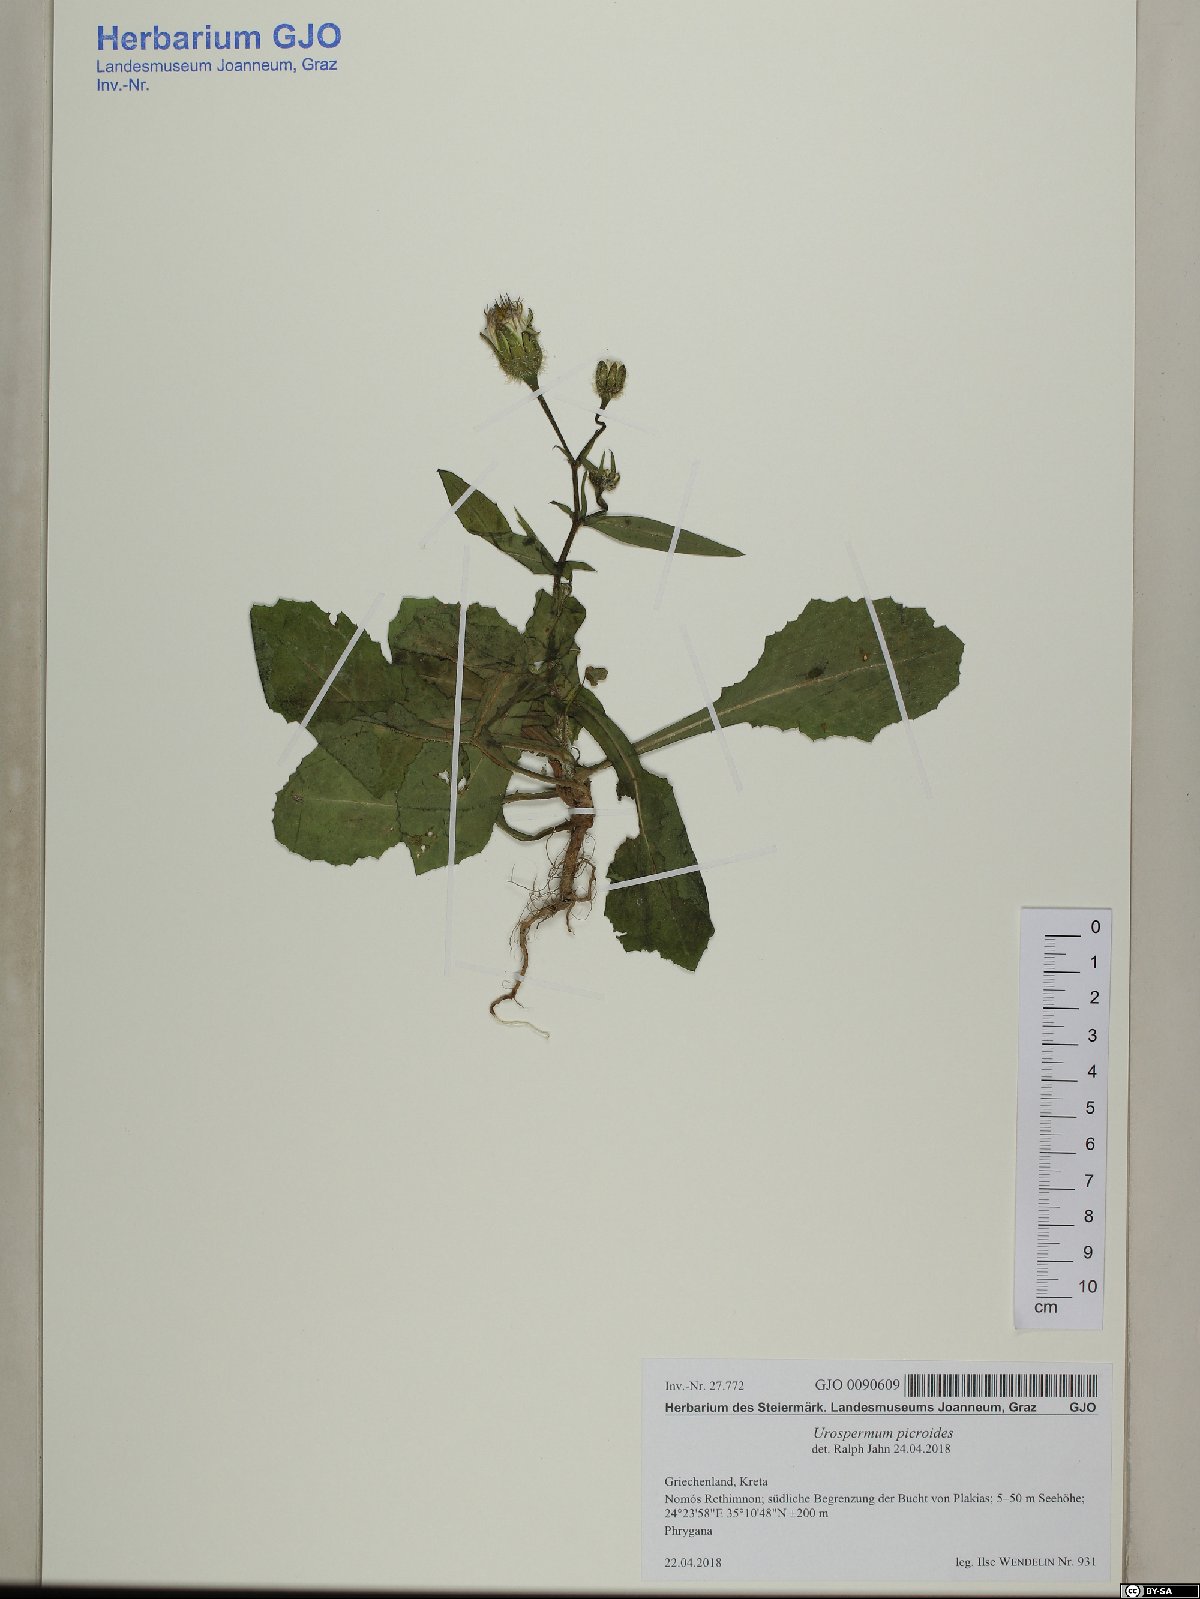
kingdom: Plantae
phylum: Tracheophyta
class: Magnoliopsida
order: Asterales
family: Asteraceae
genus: Urospermum
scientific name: Urospermum picroides
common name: False hawkbit
